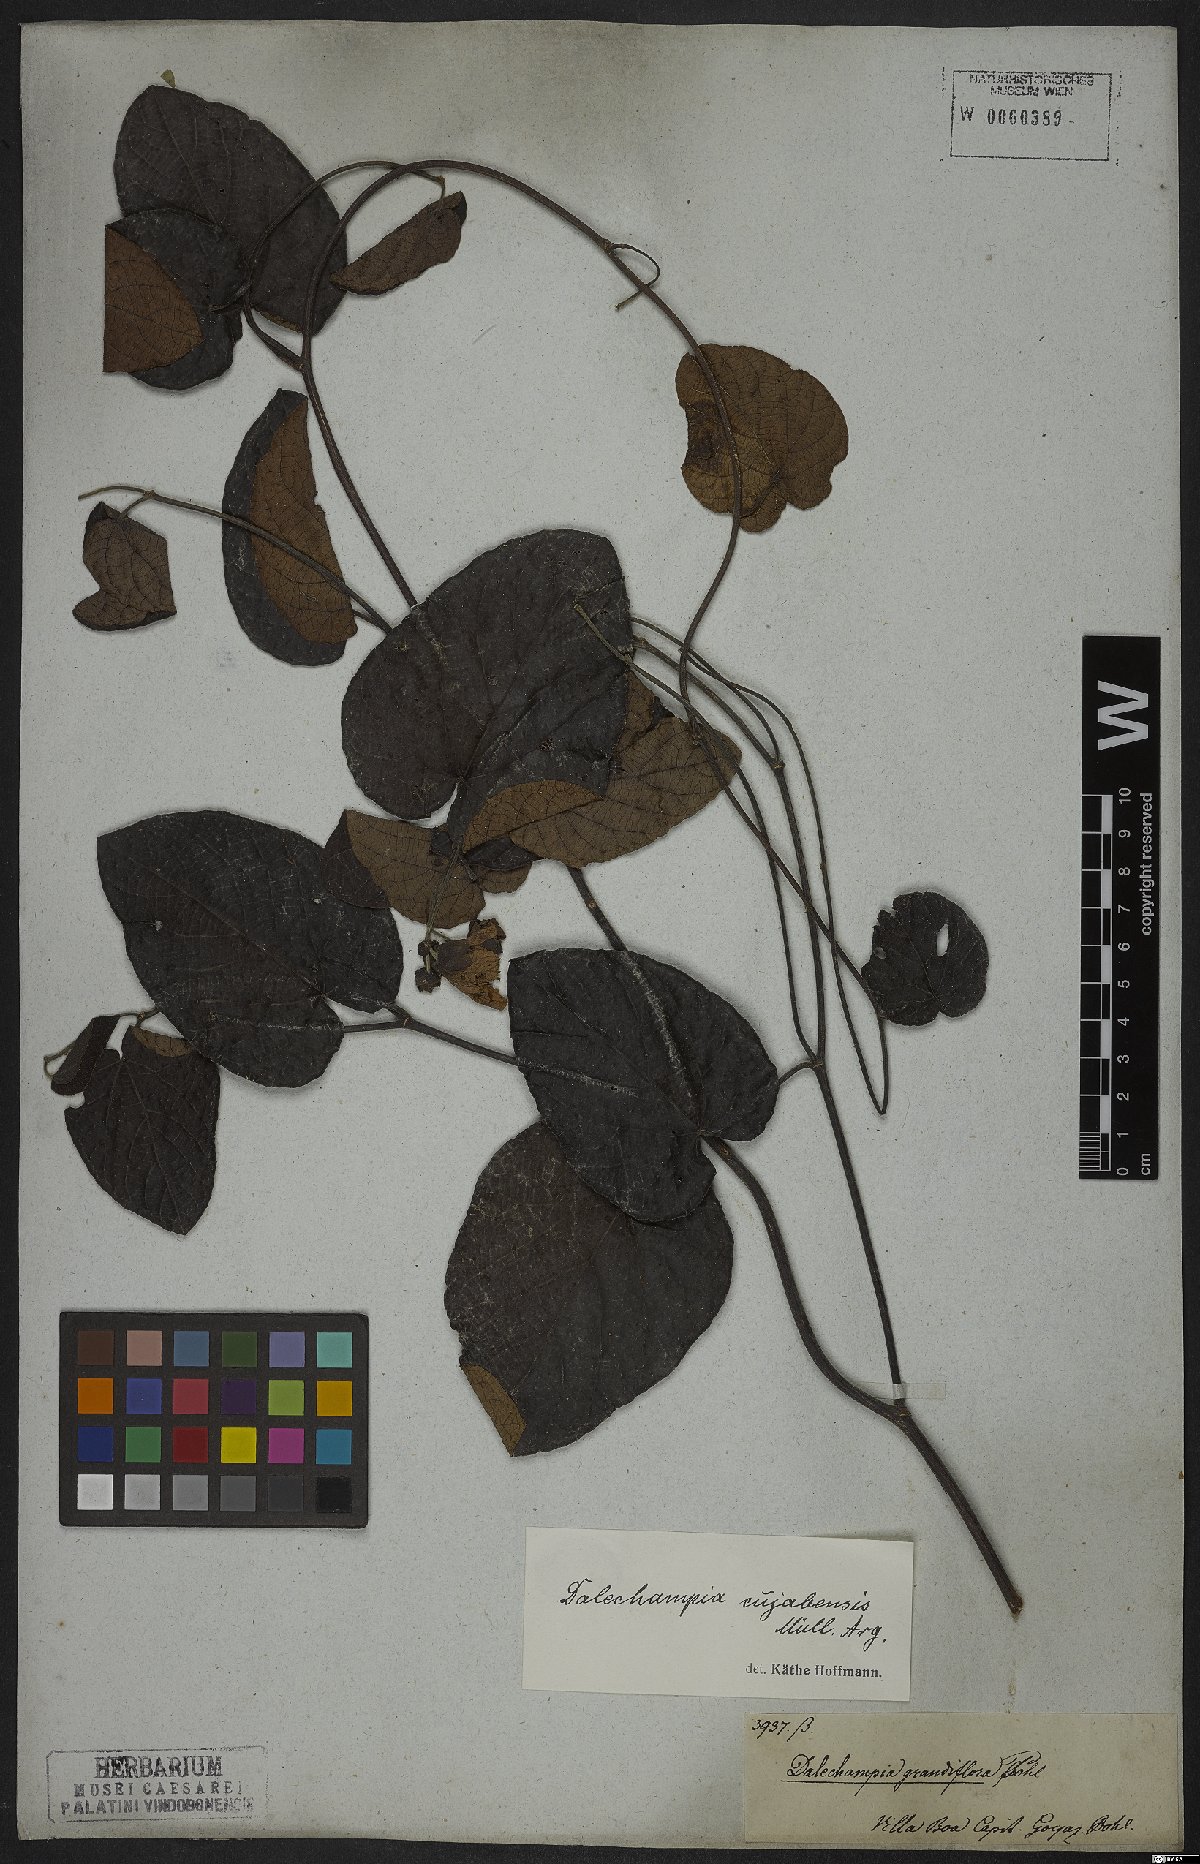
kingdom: Plantae
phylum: Tracheophyta
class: Magnoliopsida
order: Malpighiales
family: Euphorbiaceae
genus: Dalechampia
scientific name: Dalechampia cuyabensis
